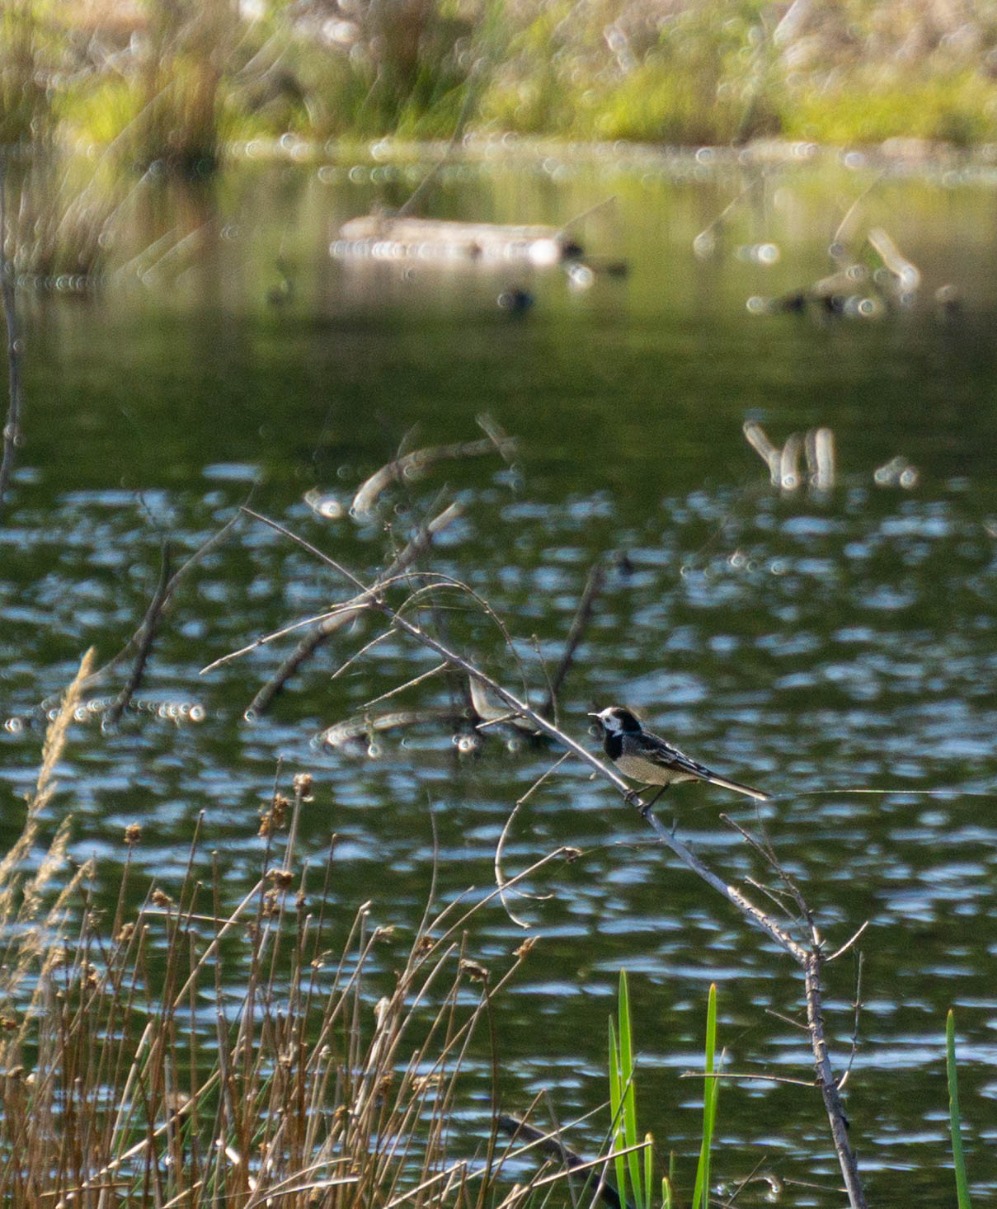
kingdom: Animalia
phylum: Chordata
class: Aves
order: Passeriformes
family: Motacillidae
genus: Motacilla
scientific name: Motacilla alba
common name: Hvid vipstjert
